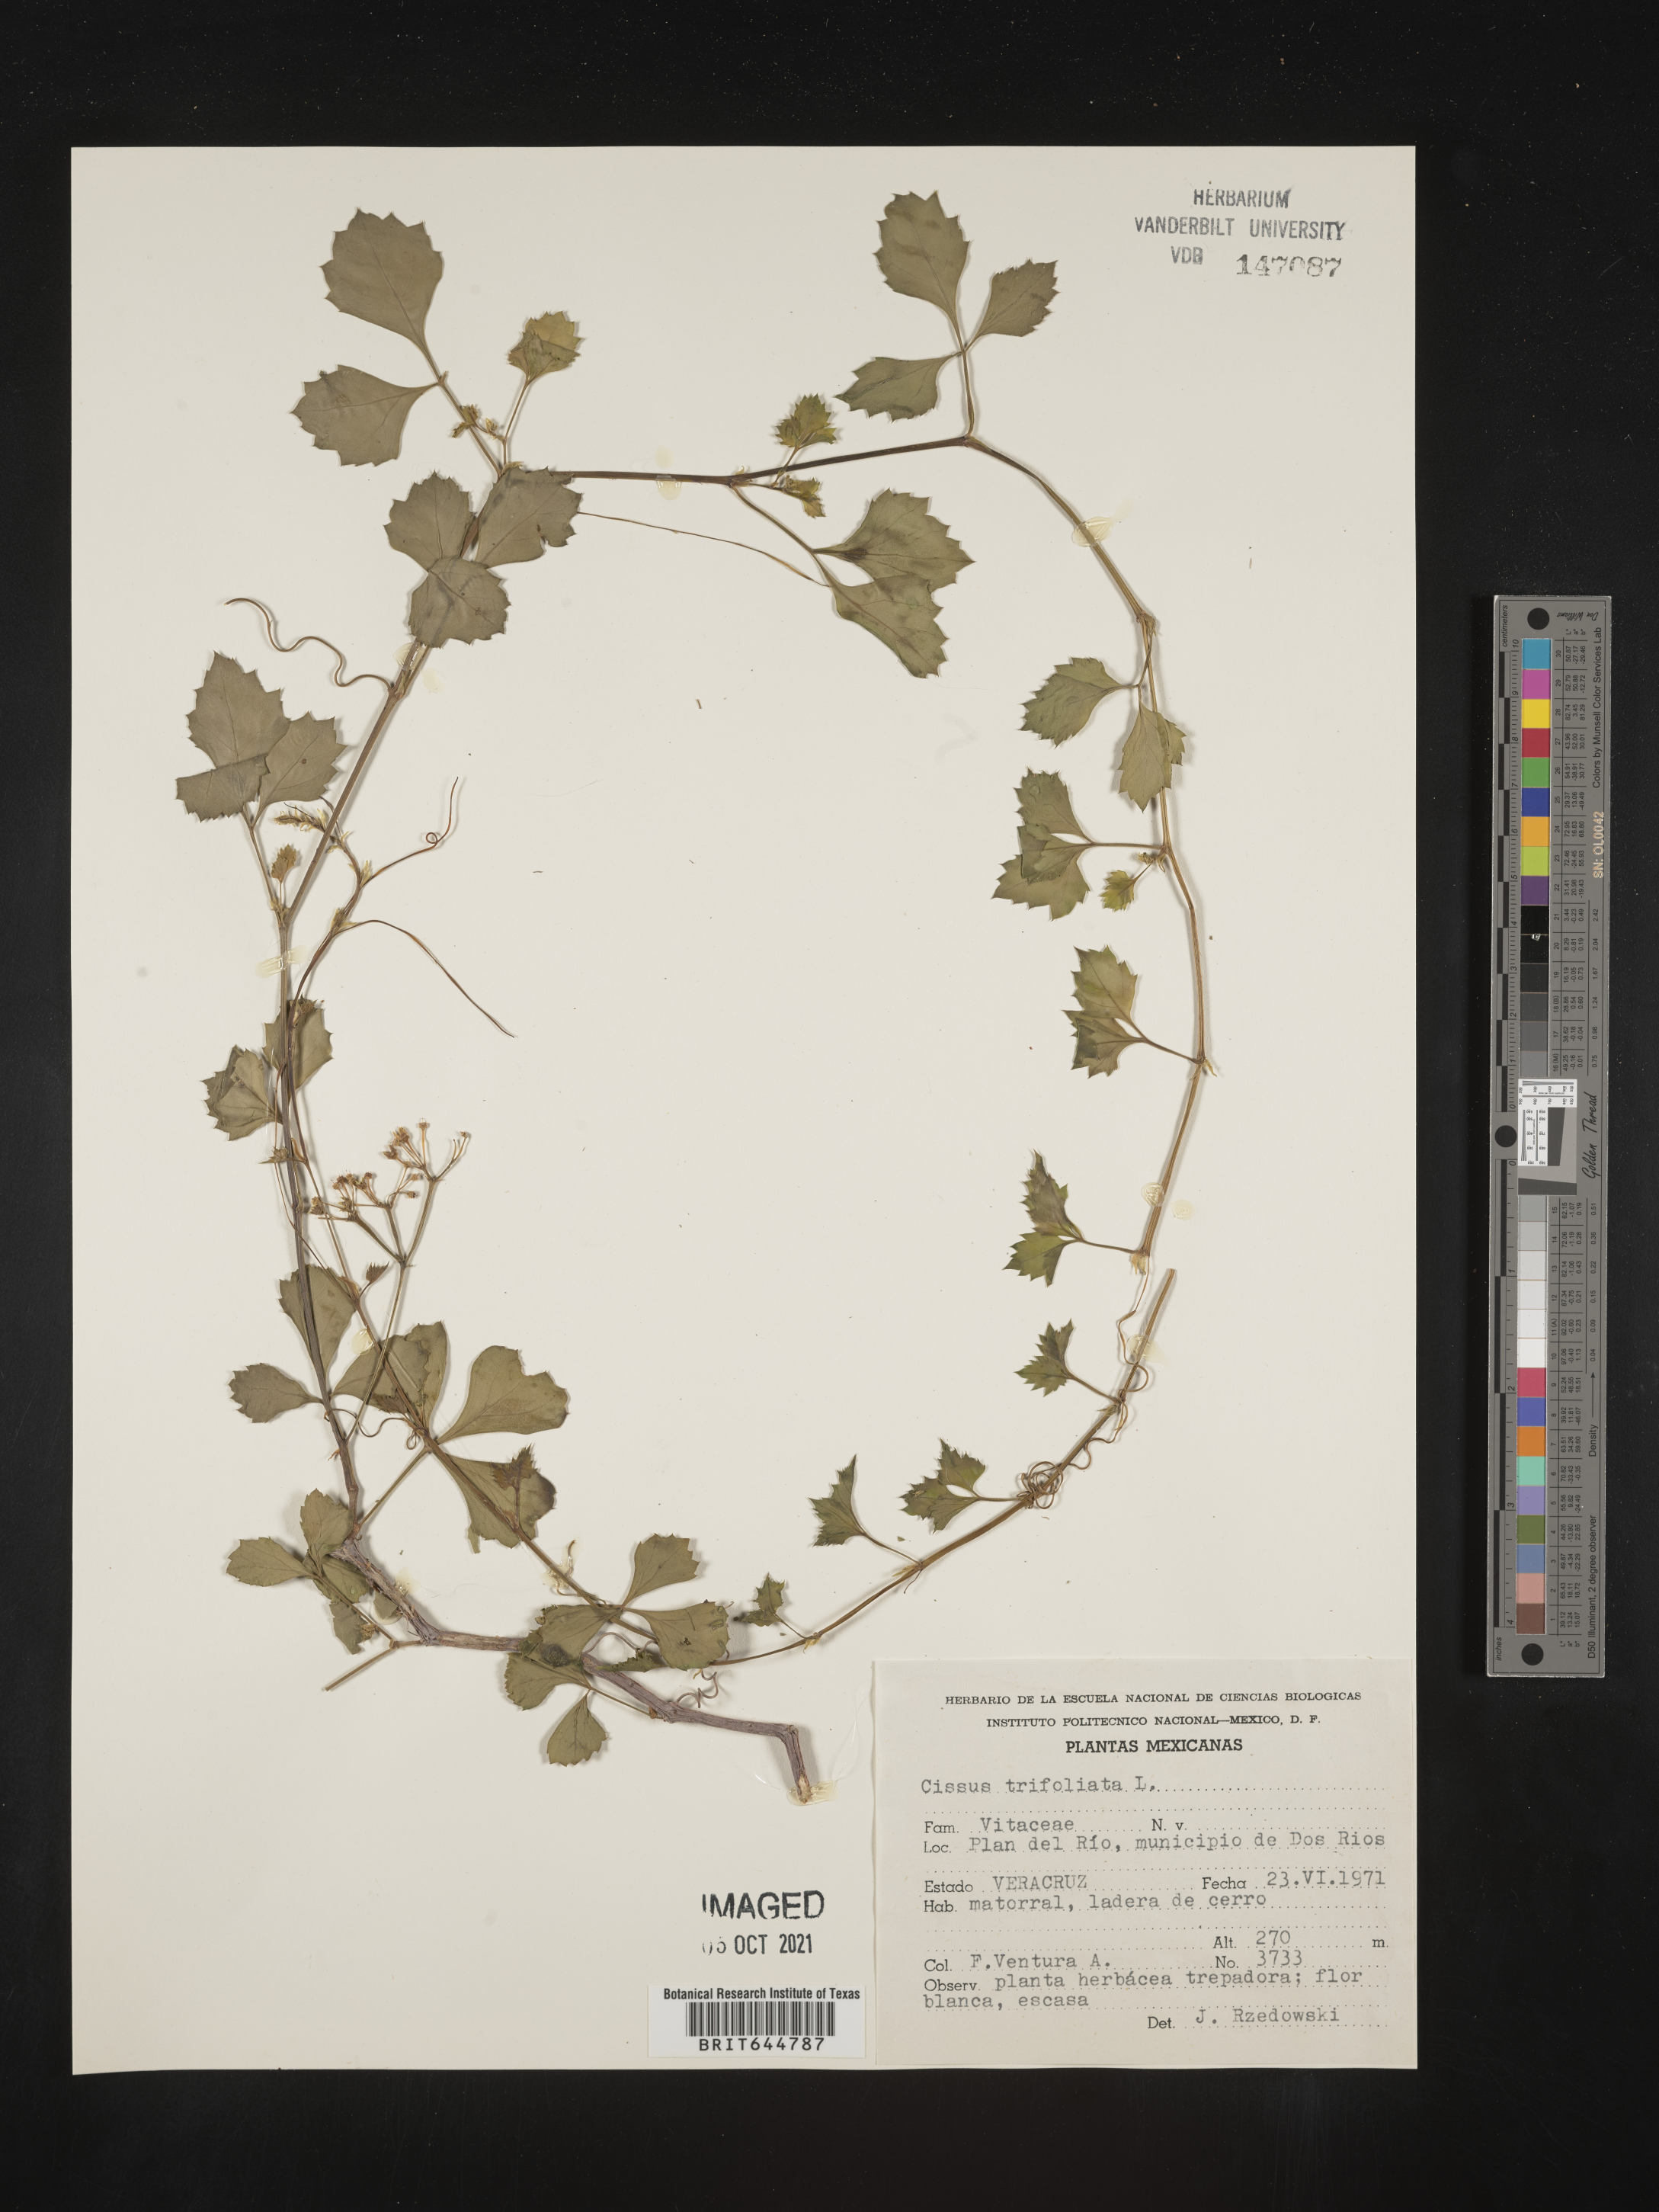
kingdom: Plantae
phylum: Tracheophyta
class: Magnoliopsida
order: Vitales
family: Vitaceae
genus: Cissus
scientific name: Cissus
